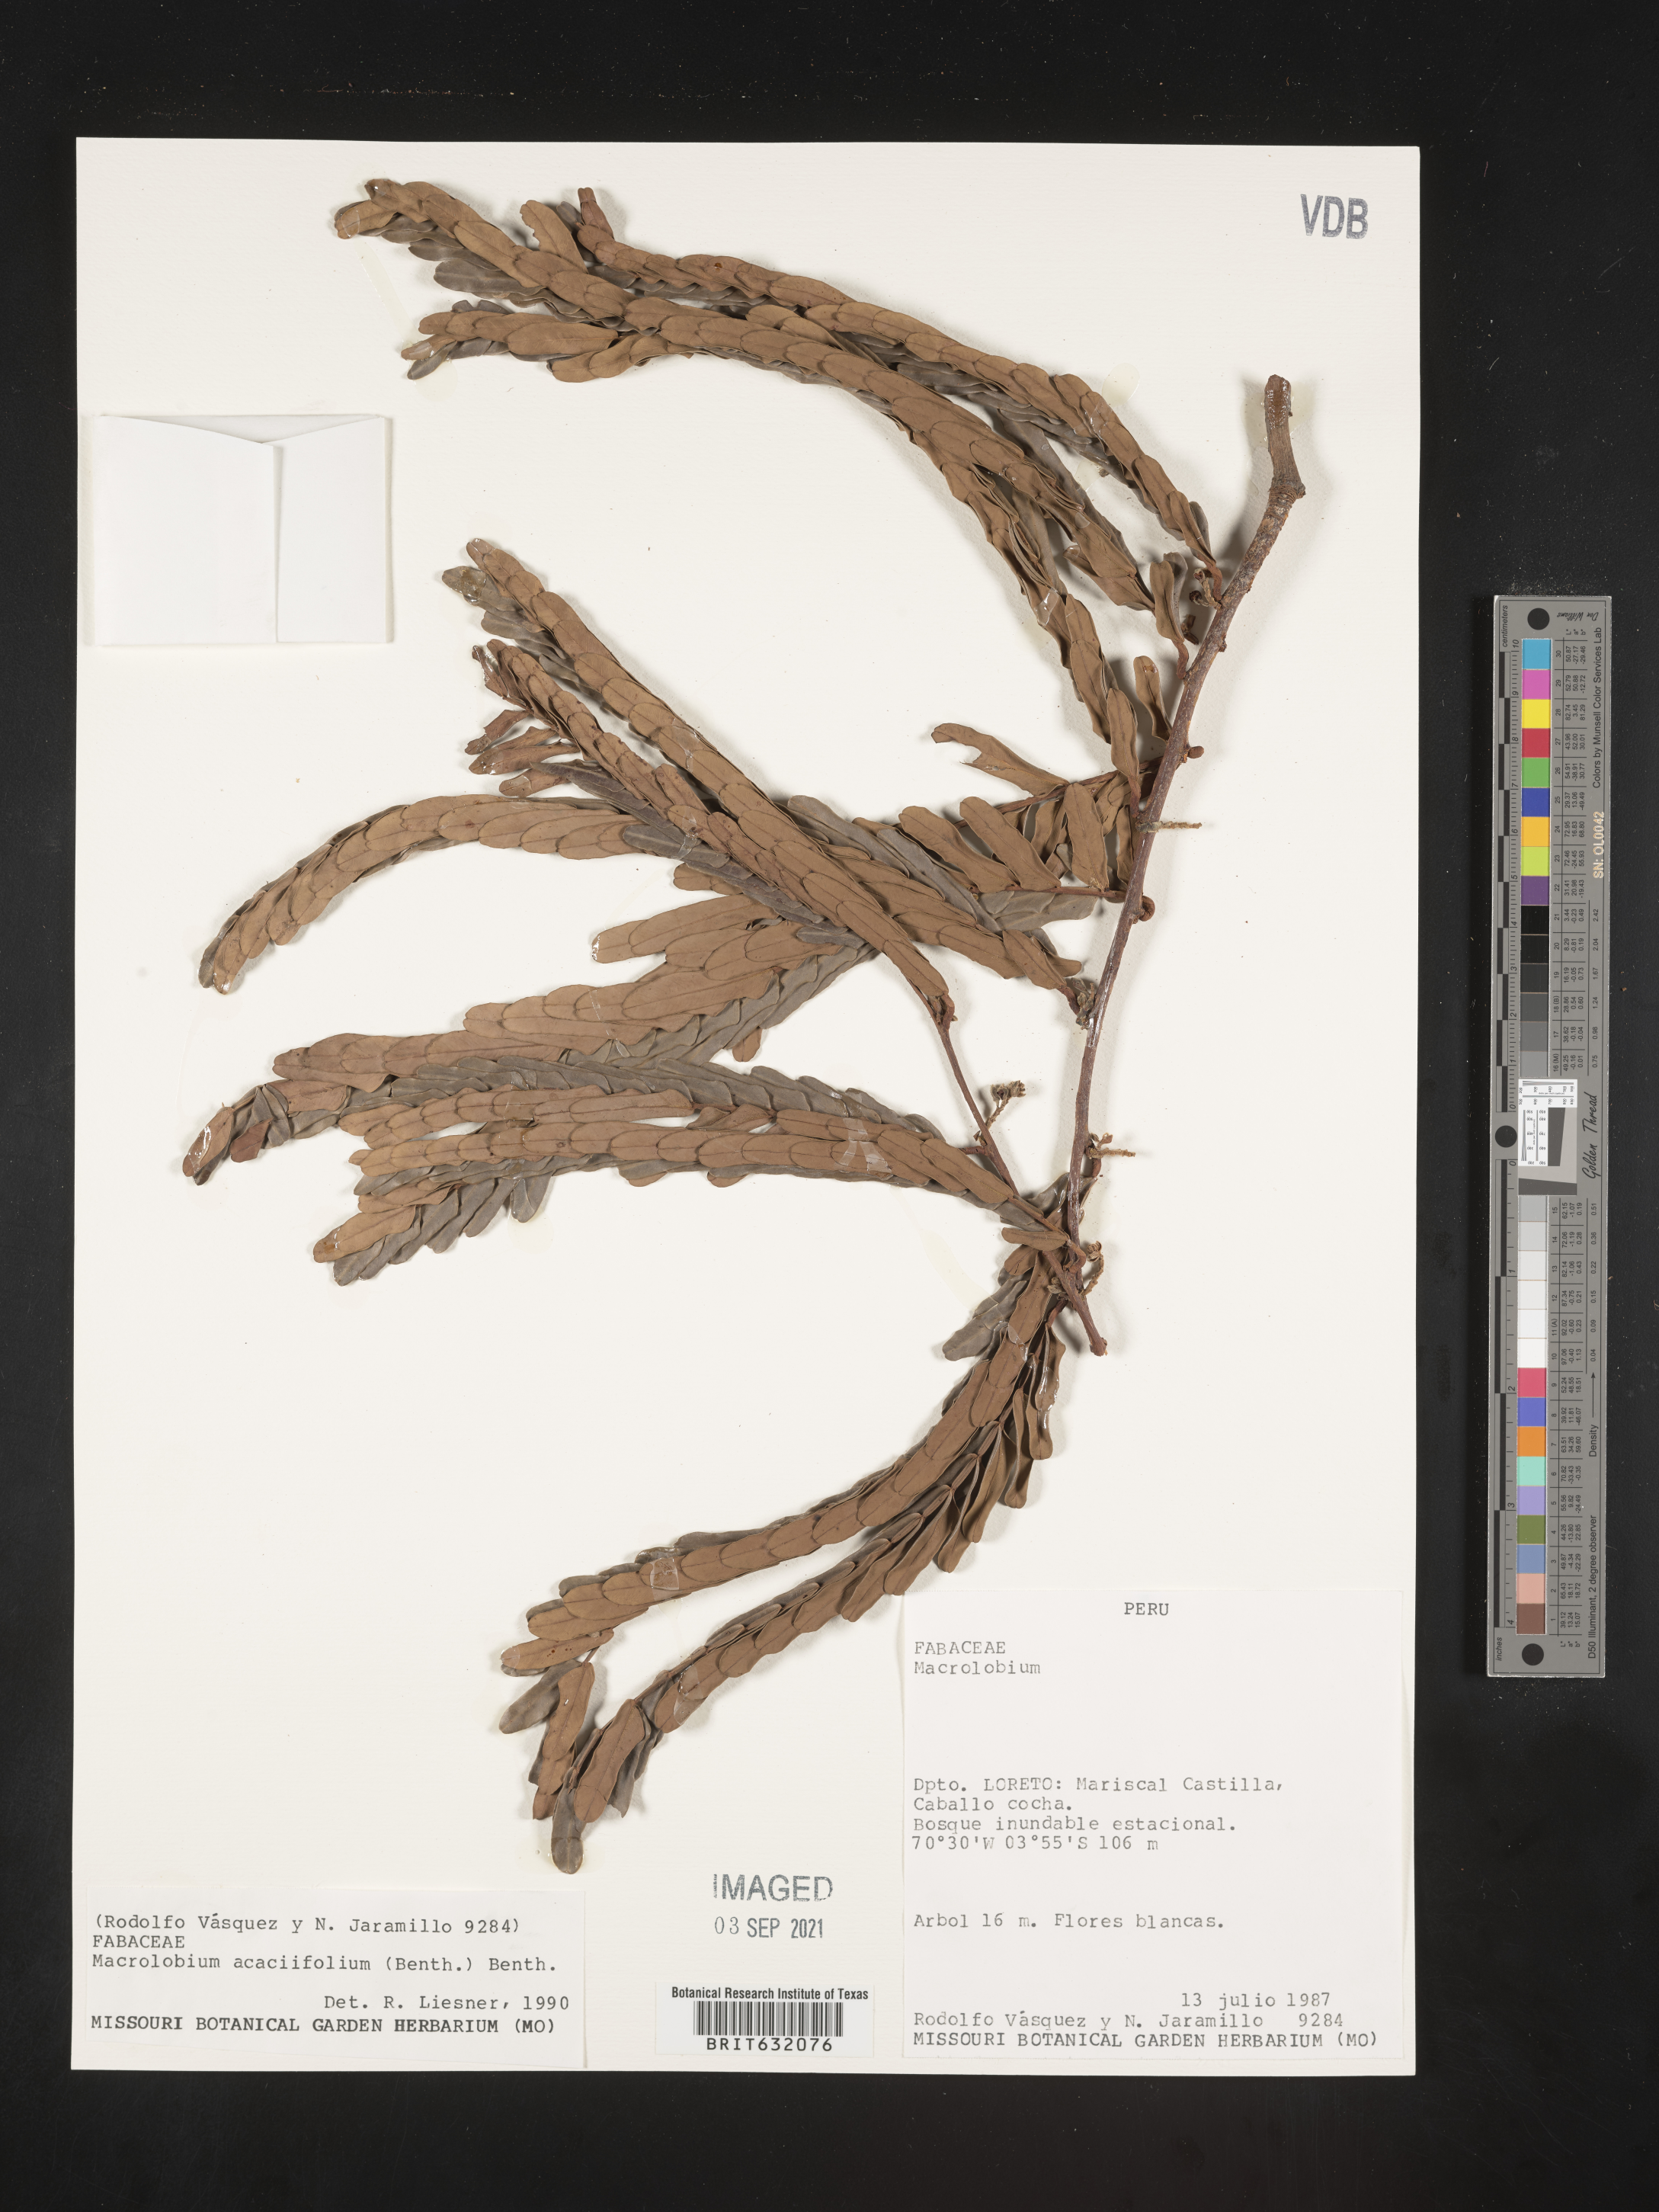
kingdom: Plantae
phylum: Tracheophyta
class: Magnoliopsida
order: Fabales
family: Fabaceae
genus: Macrolobium
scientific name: Macrolobium
